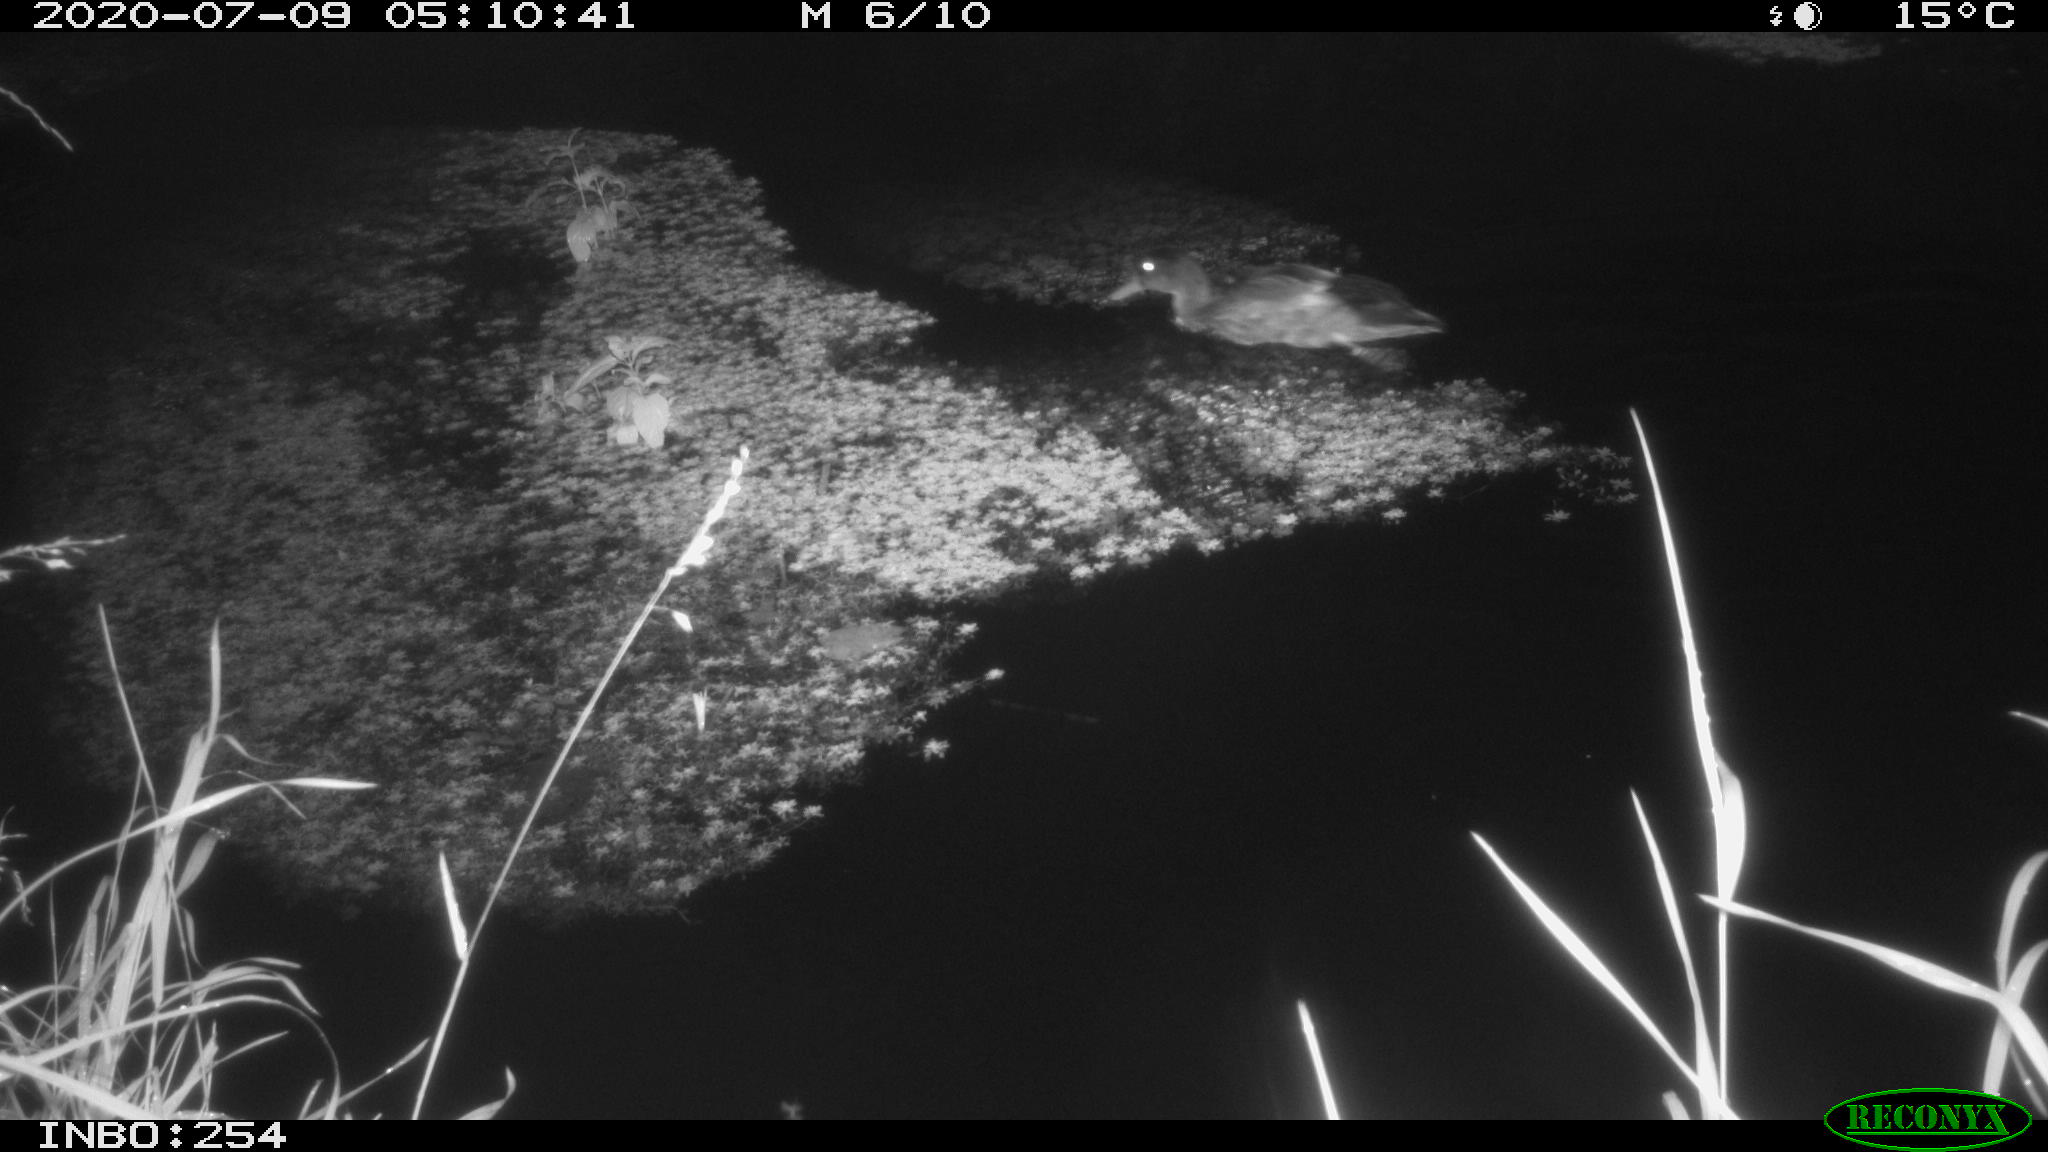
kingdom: Animalia
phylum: Chordata
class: Aves
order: Anseriformes
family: Anatidae
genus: Anas
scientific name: Anas platyrhynchos
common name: Mallard
